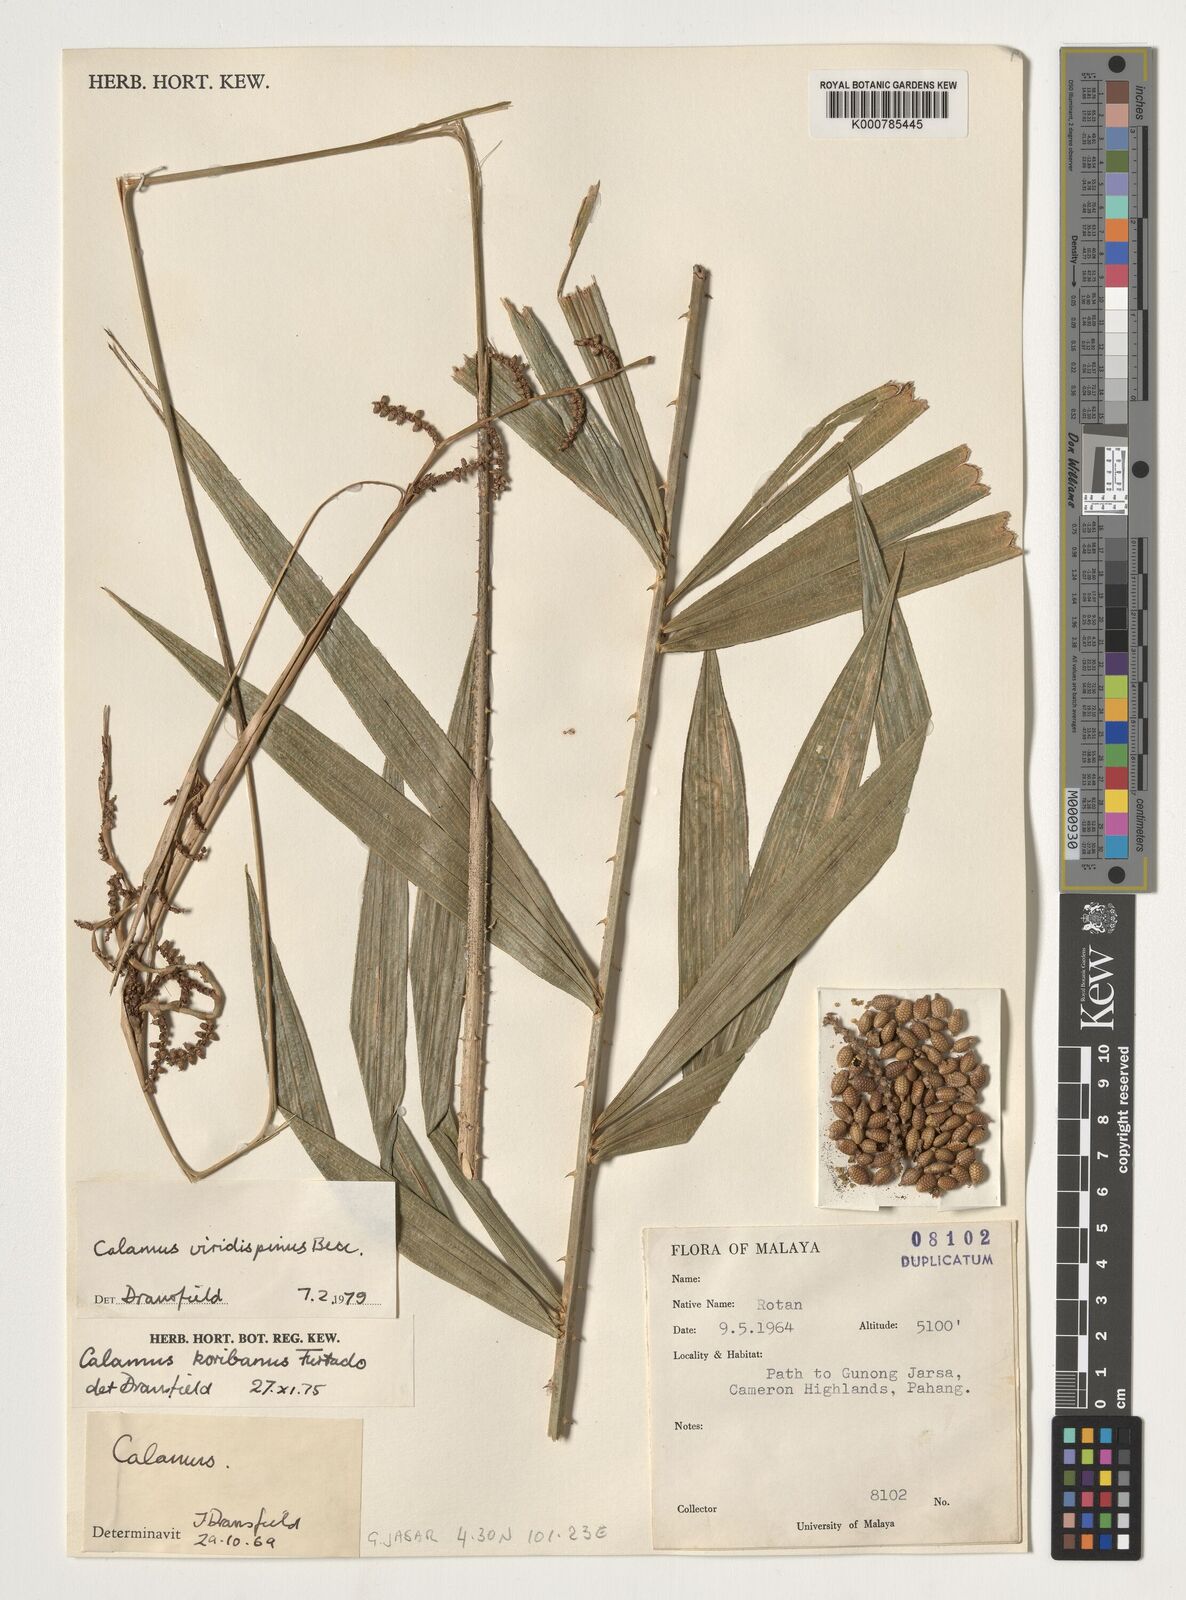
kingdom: Plantae
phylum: Tracheophyta
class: Liliopsida
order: Arecales
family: Arecaceae
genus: Calamus
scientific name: Calamus helferianus
